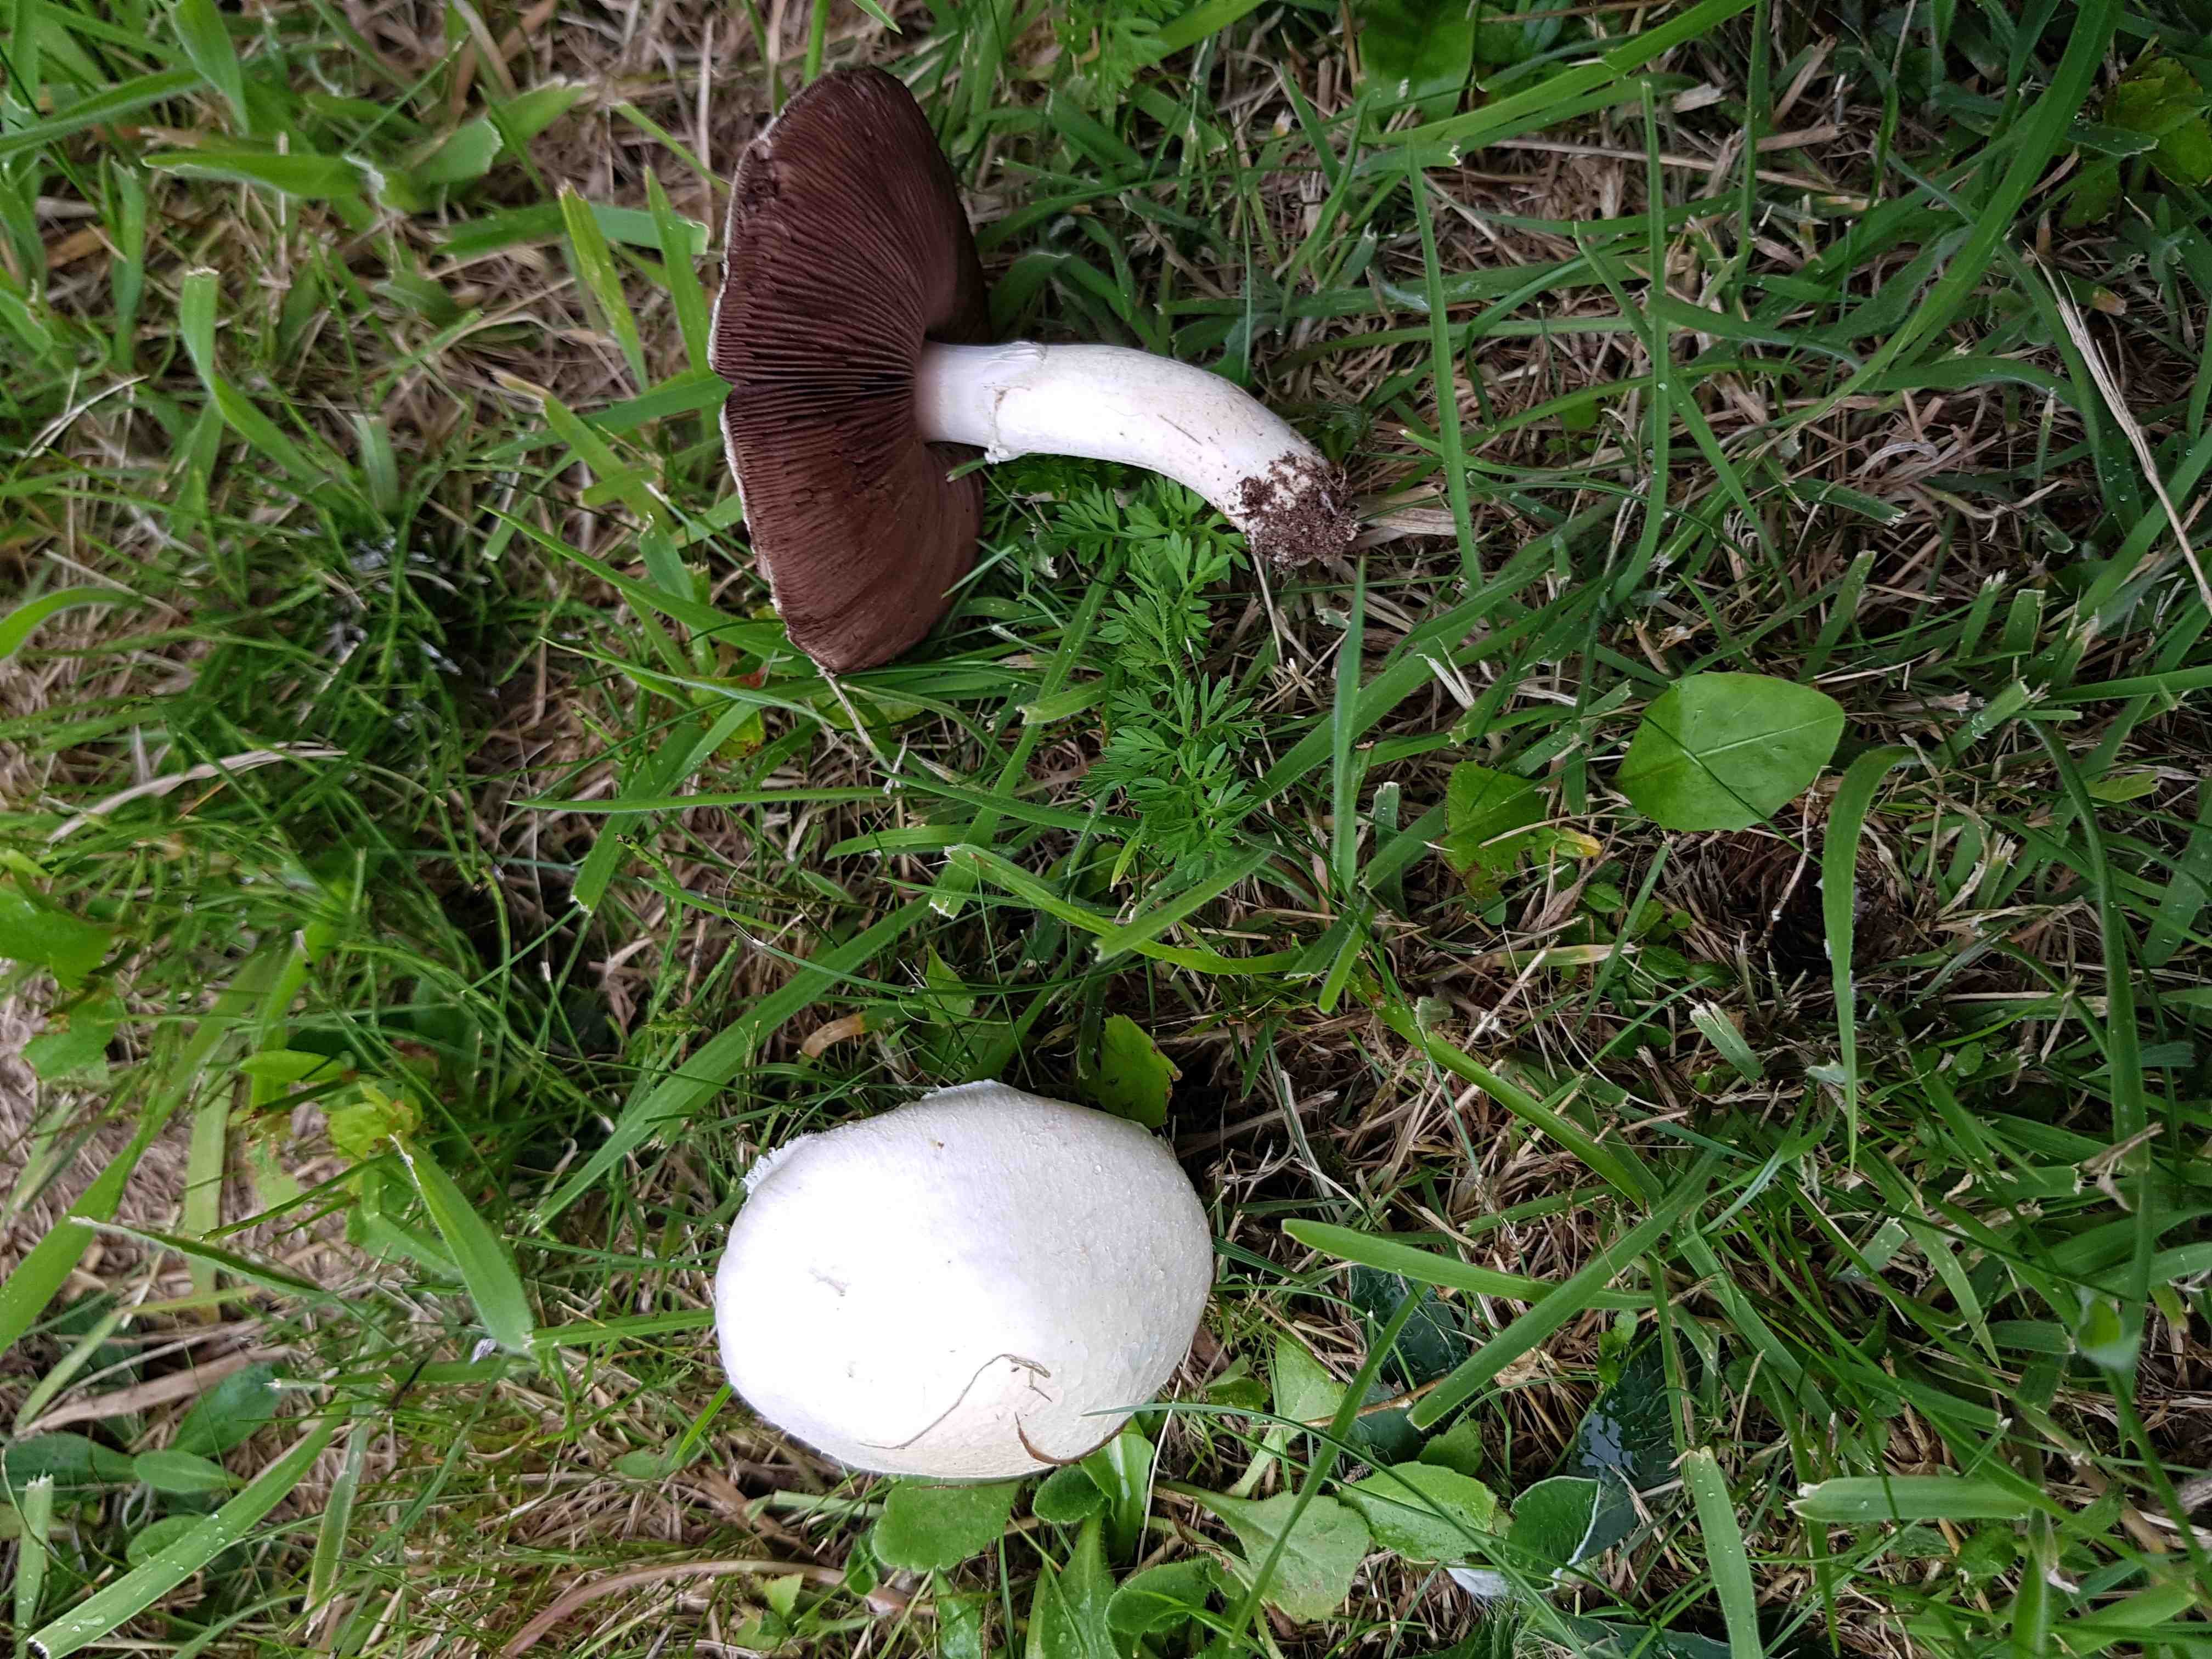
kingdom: Fungi
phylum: Basidiomycota
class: Agaricomycetes
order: Agaricales
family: Agaricaceae
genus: Agaricus
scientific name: Agaricus campestris
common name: mark-champignon
